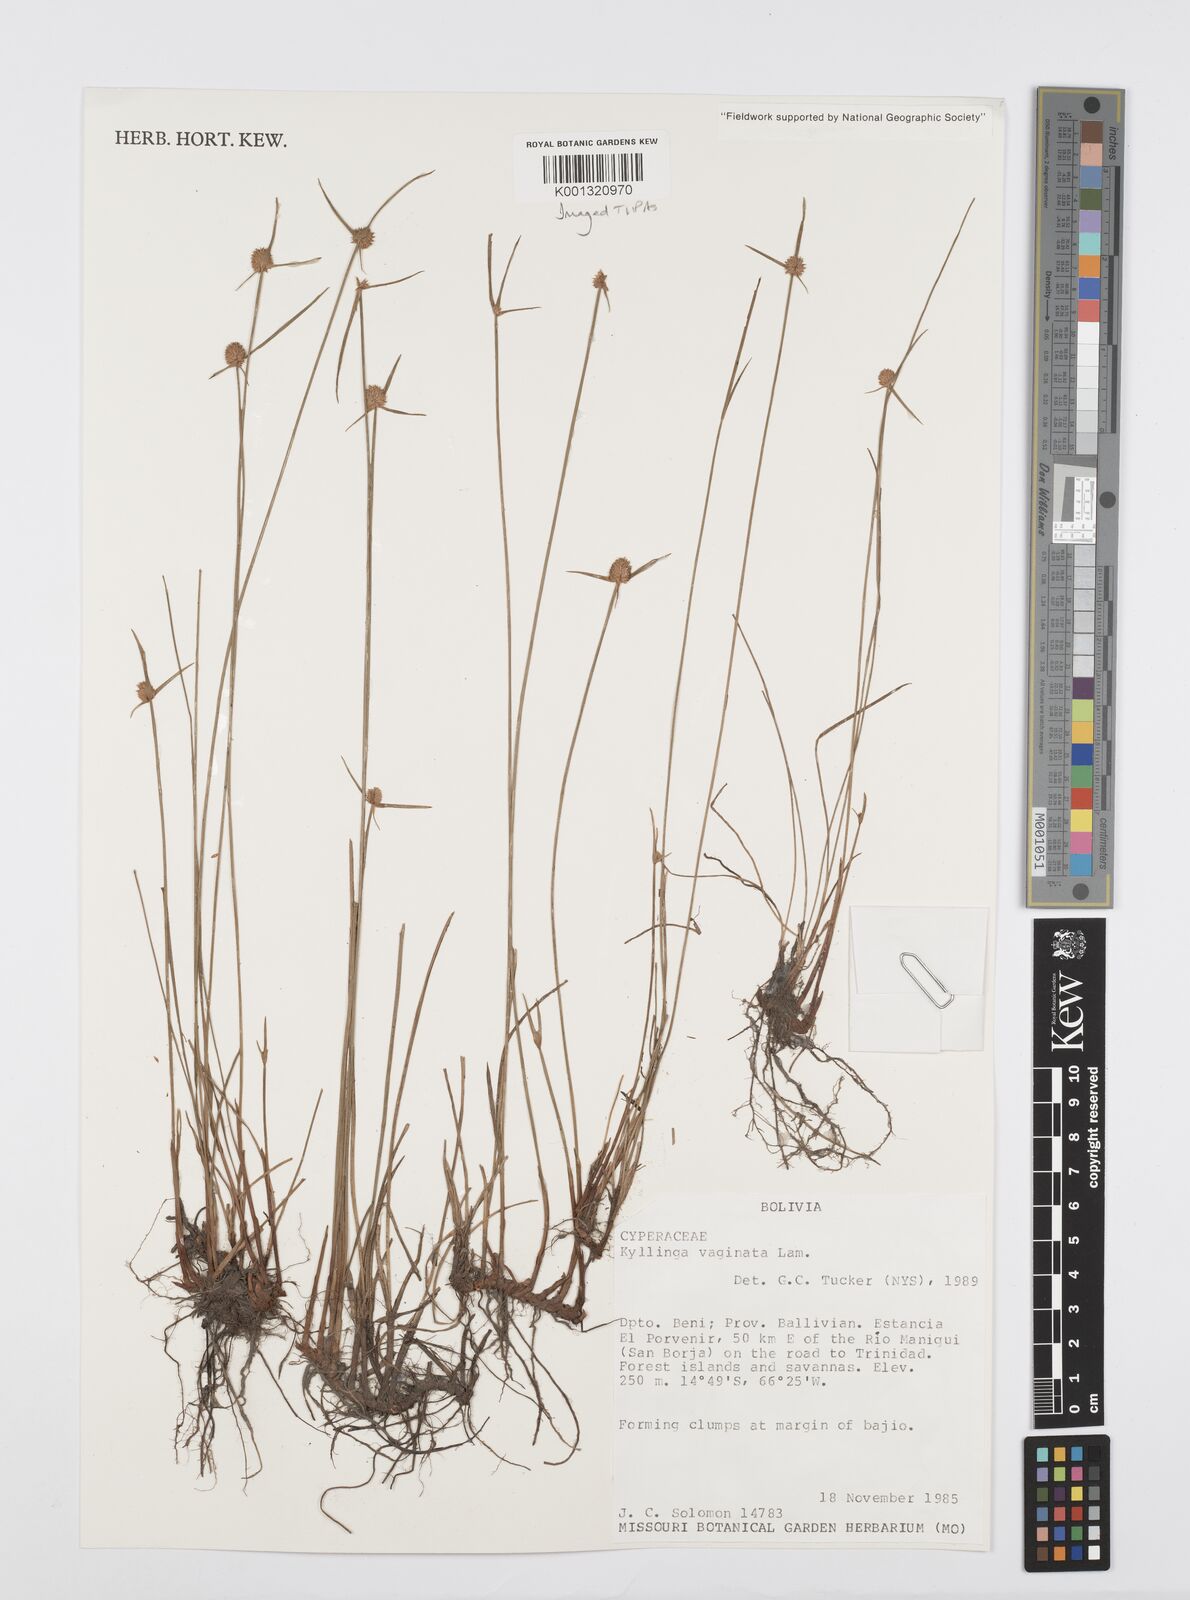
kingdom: Plantae
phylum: Tracheophyta
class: Liliopsida
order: Poales
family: Cyperaceae
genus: Cyperus
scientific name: Cyperus obtusatus
